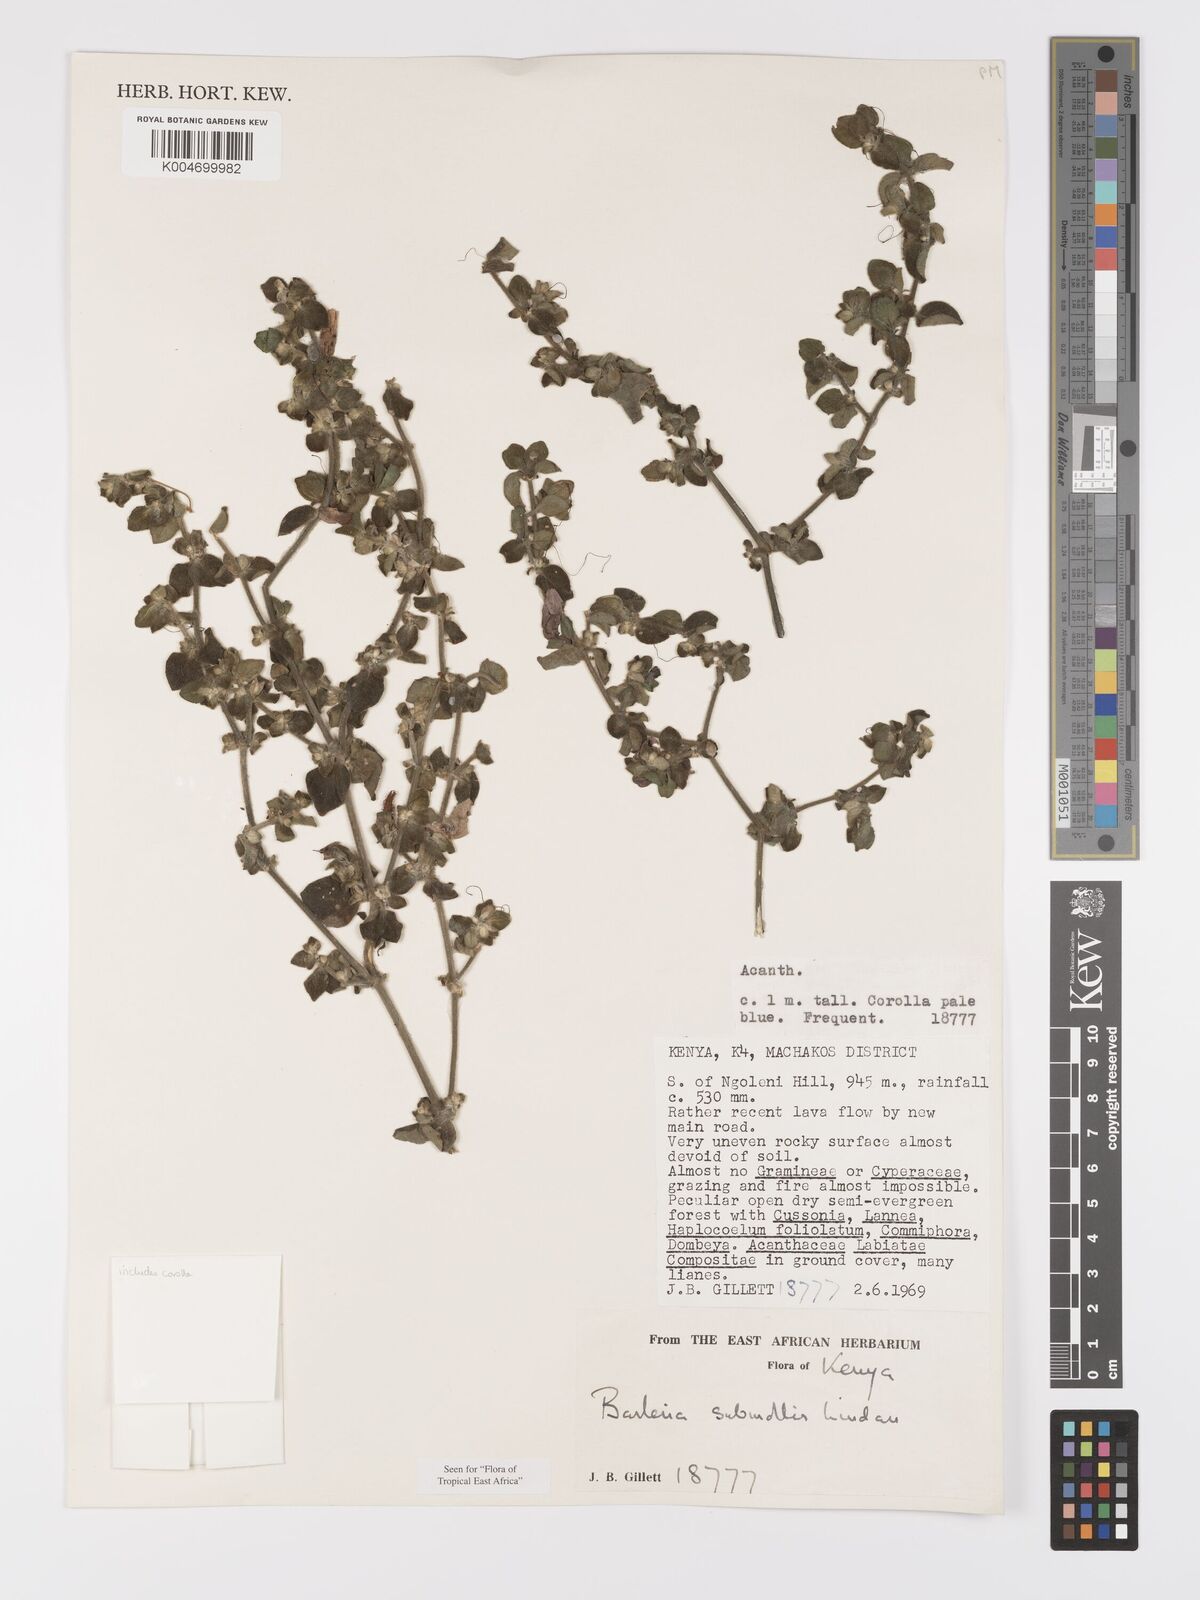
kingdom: Plantae
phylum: Tracheophyta
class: Magnoliopsida
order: Lamiales
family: Acanthaceae
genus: Barleria
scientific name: Barleria submollis
